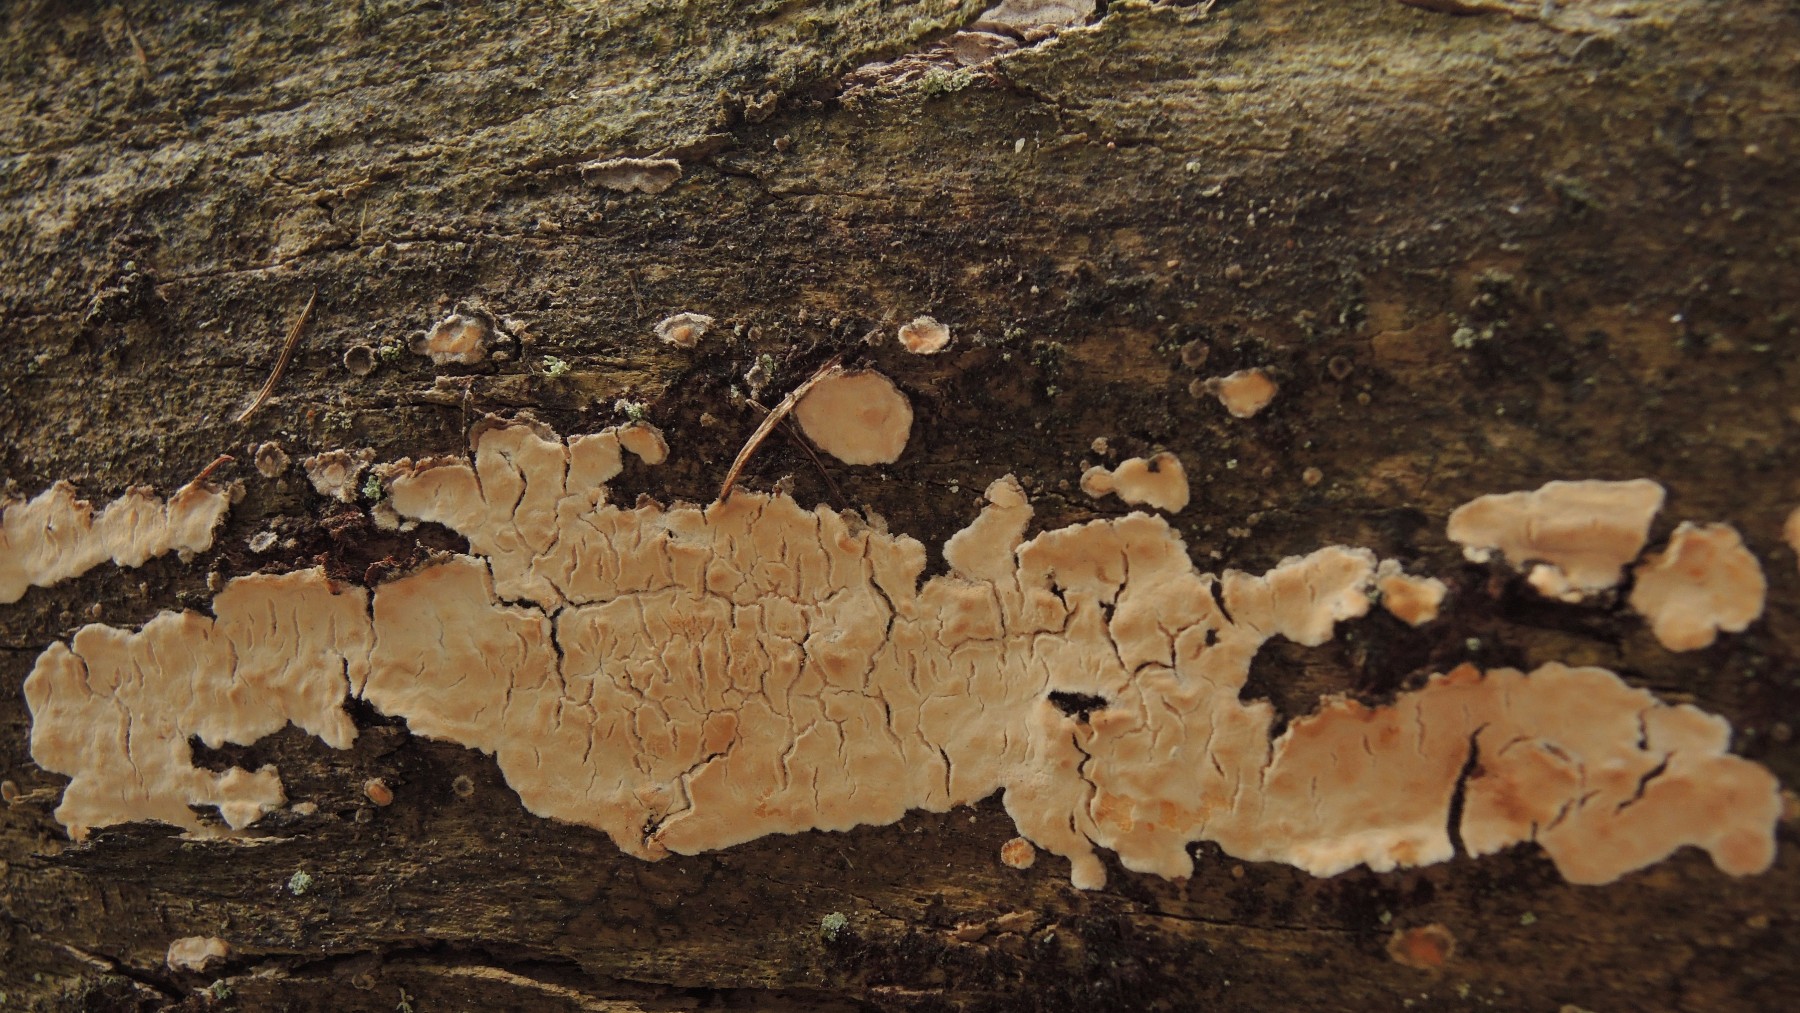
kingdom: Fungi
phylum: Basidiomycota
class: Agaricomycetes
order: Polyporales
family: Dacryobolaceae
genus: Dacryobolus
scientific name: Dacryobolus karstenii
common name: glat vulkanskorpe
